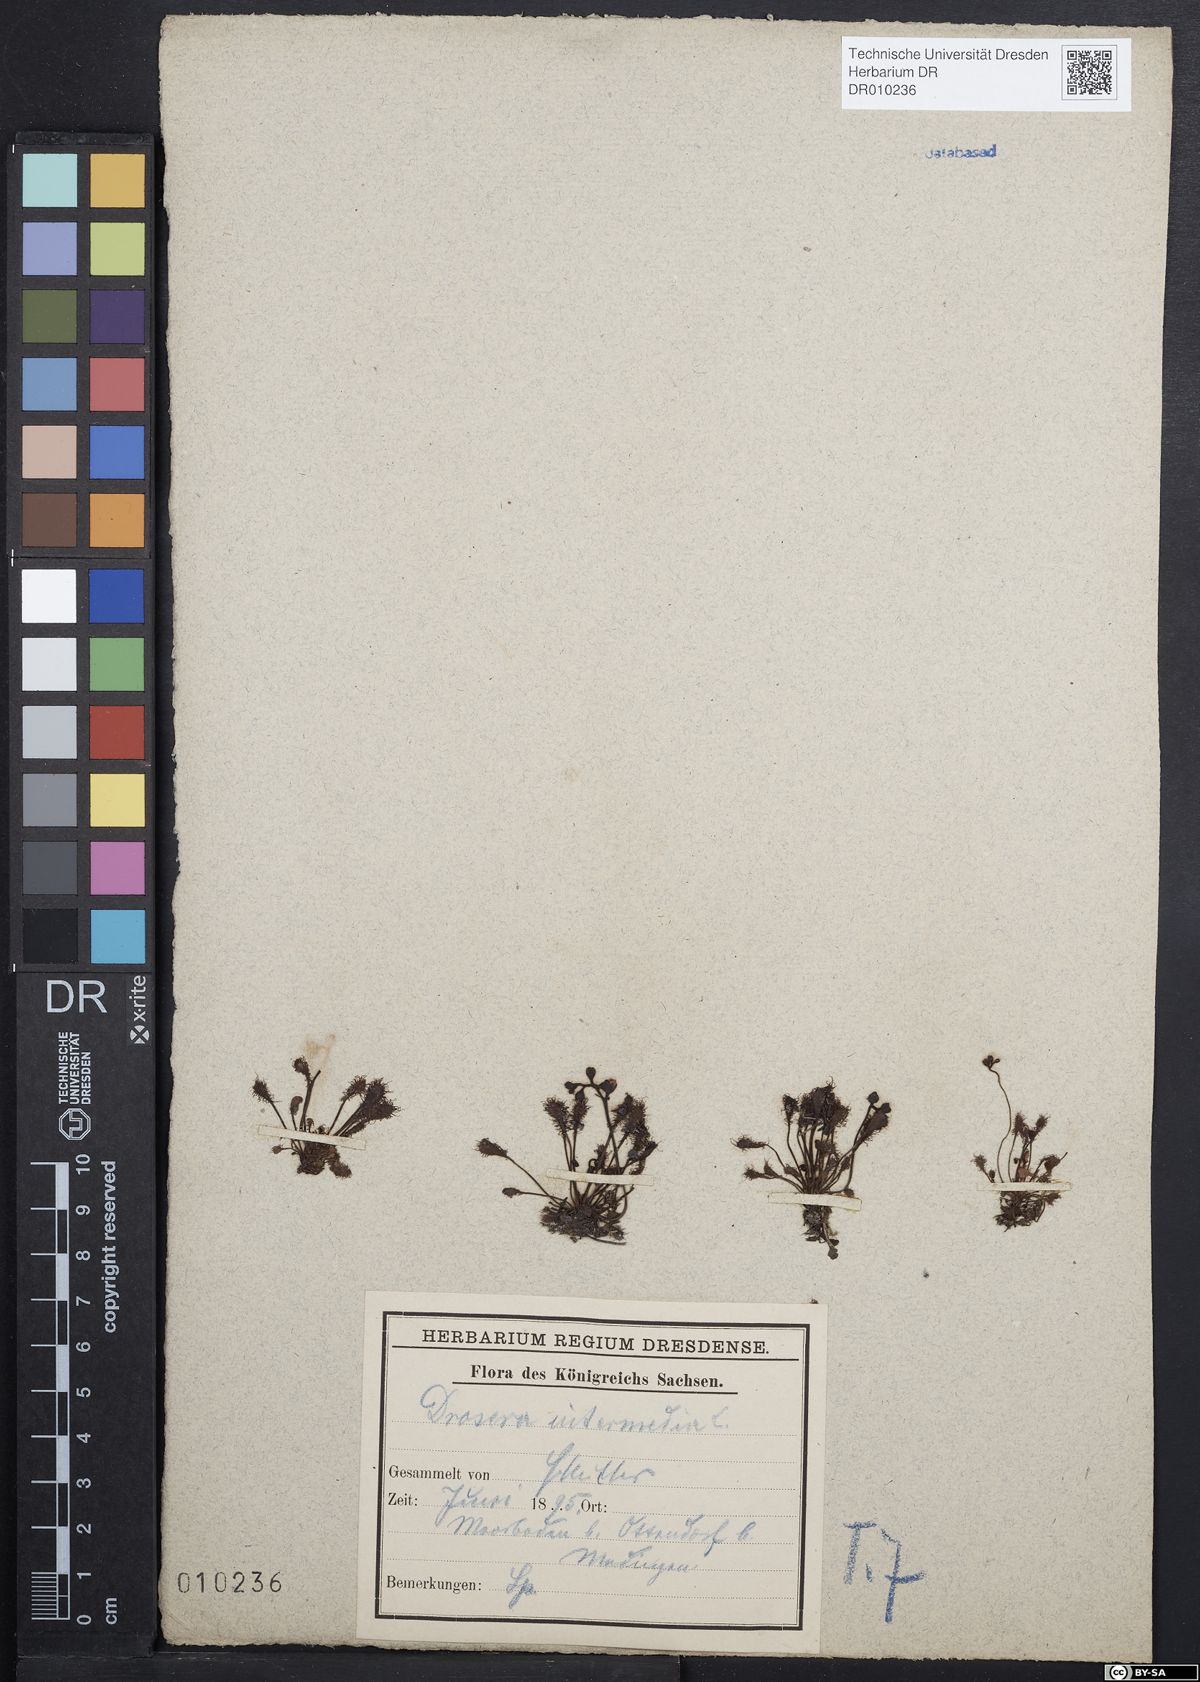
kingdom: Plantae
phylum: Tracheophyta
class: Magnoliopsida
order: Caryophyllales
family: Droseraceae
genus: Drosera
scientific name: Drosera intermedia
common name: Oblong-leaved sundew
